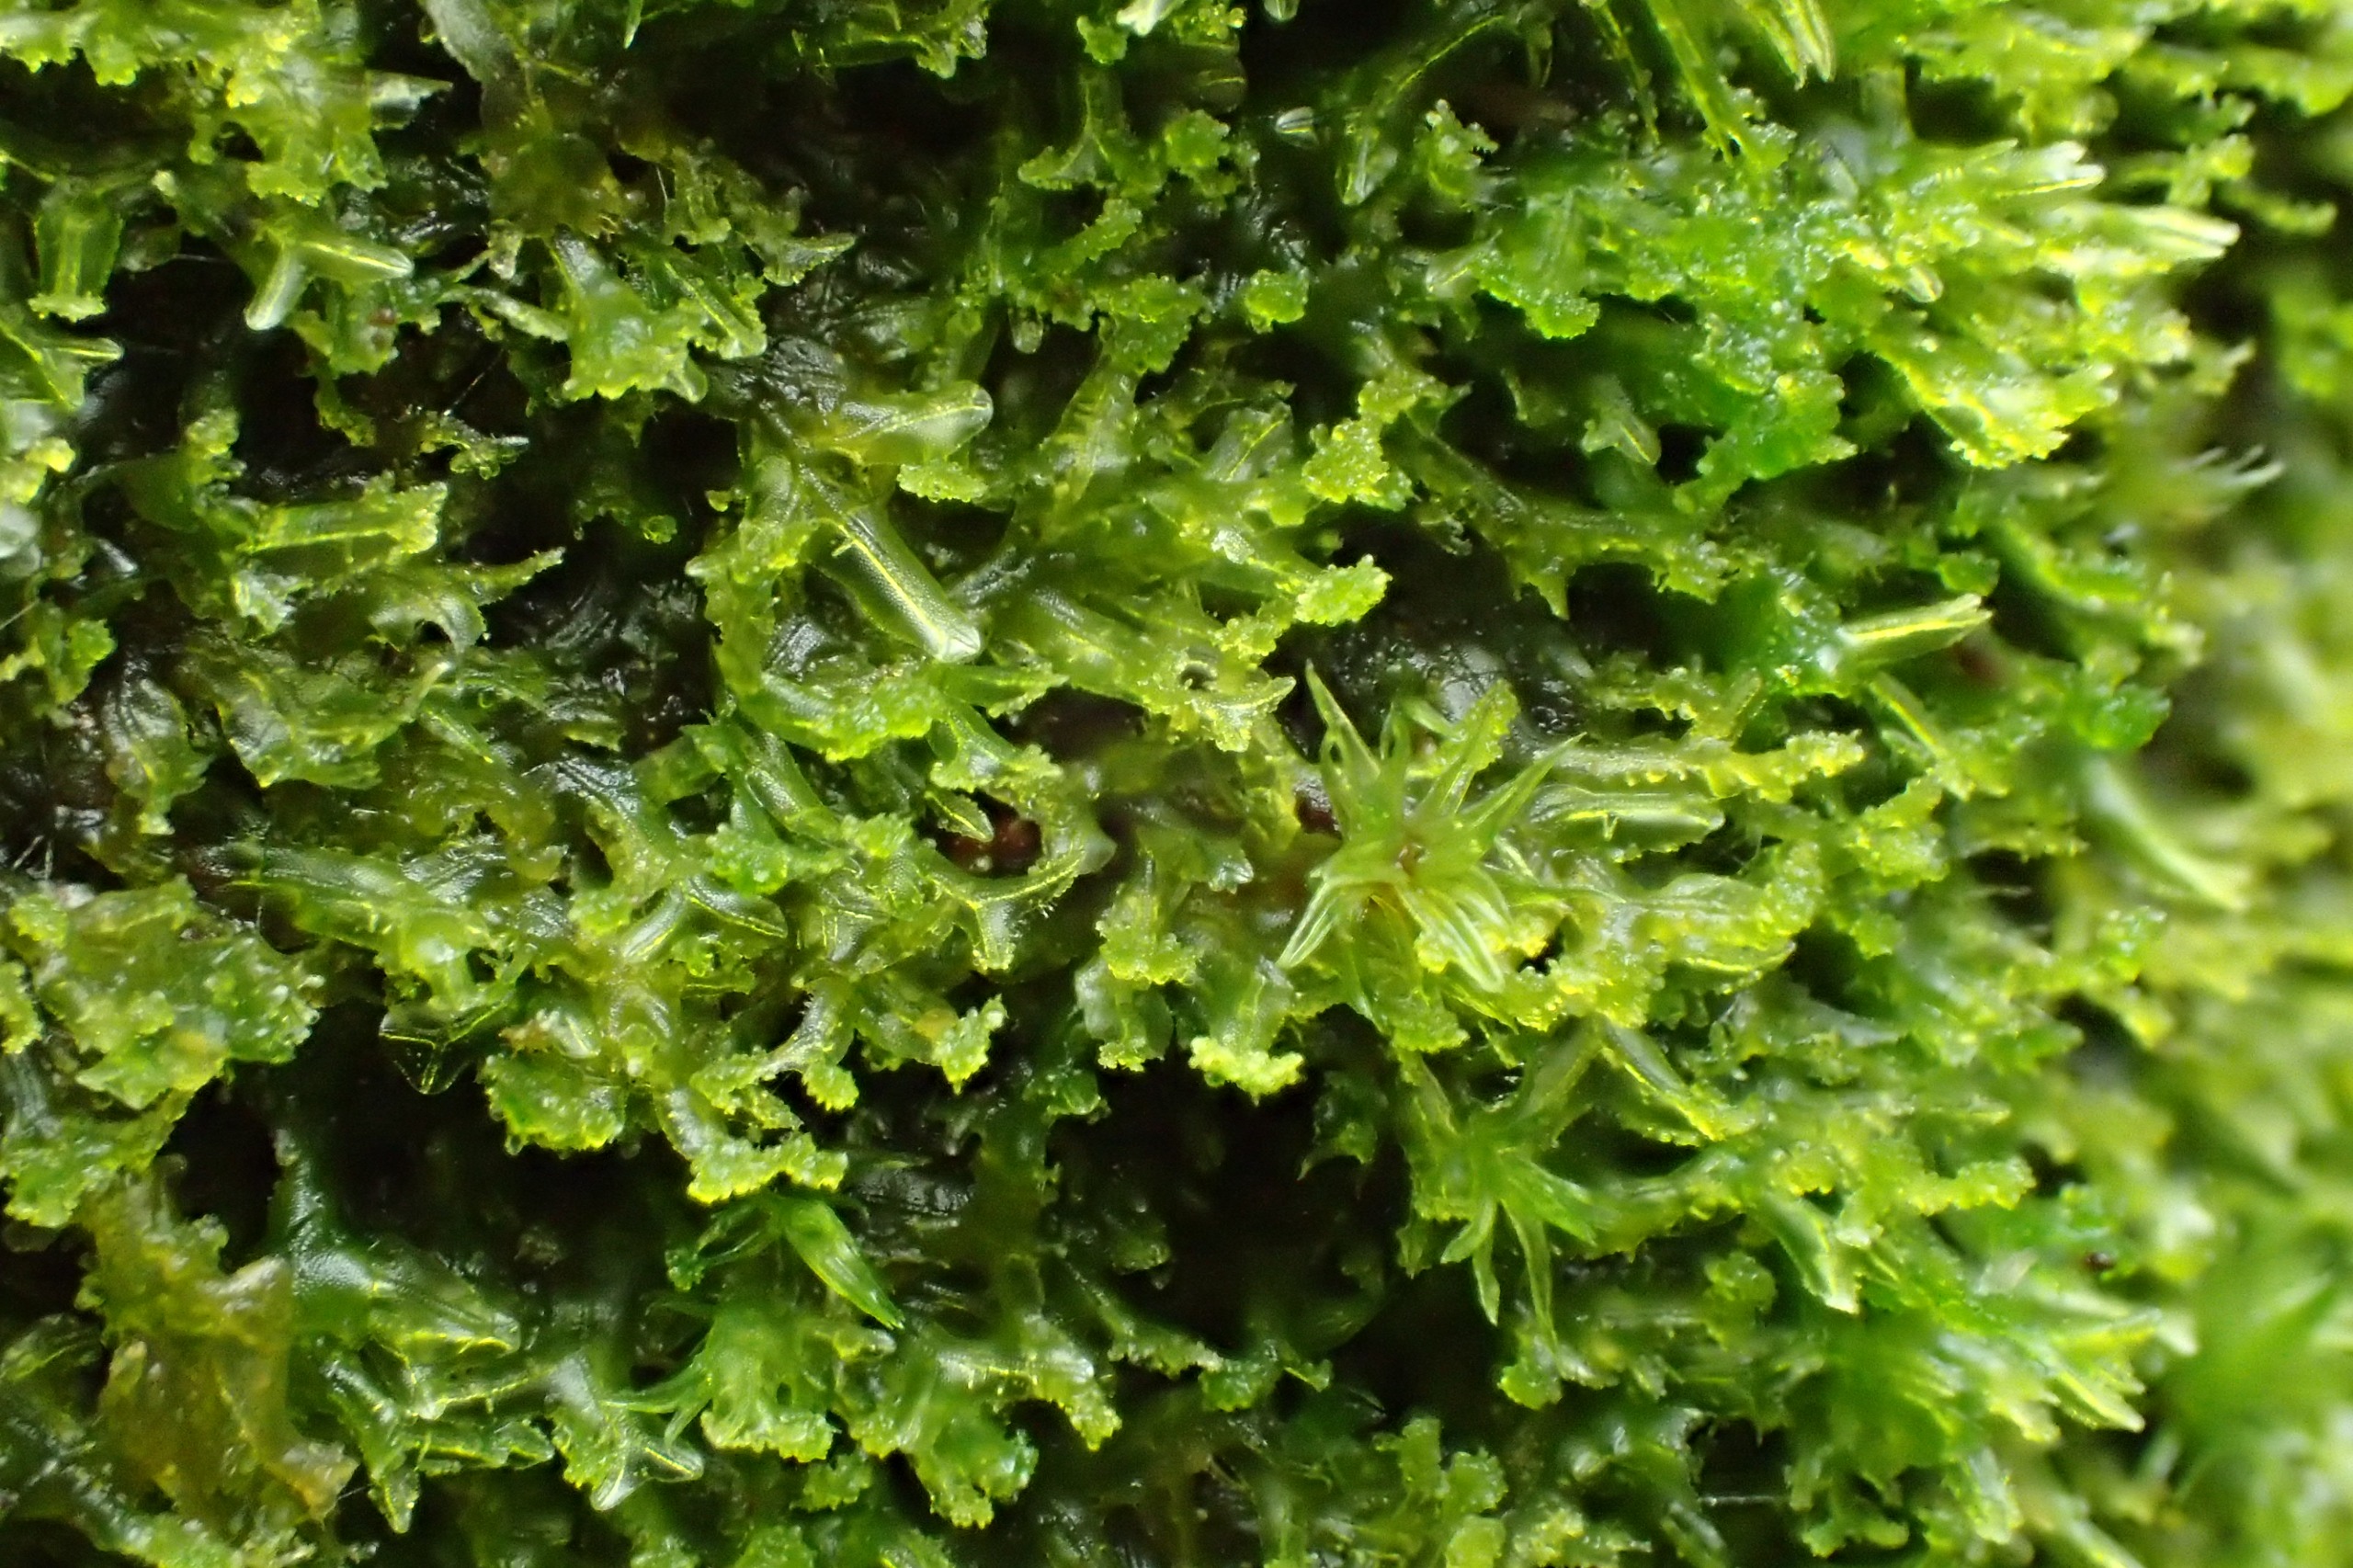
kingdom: Plantae
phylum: Marchantiophyta
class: Jungermanniopsida
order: Metzgeriales
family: Aneuraceae
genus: Riccardia
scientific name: Riccardia palmata
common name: Blågrøn gaffelløv
